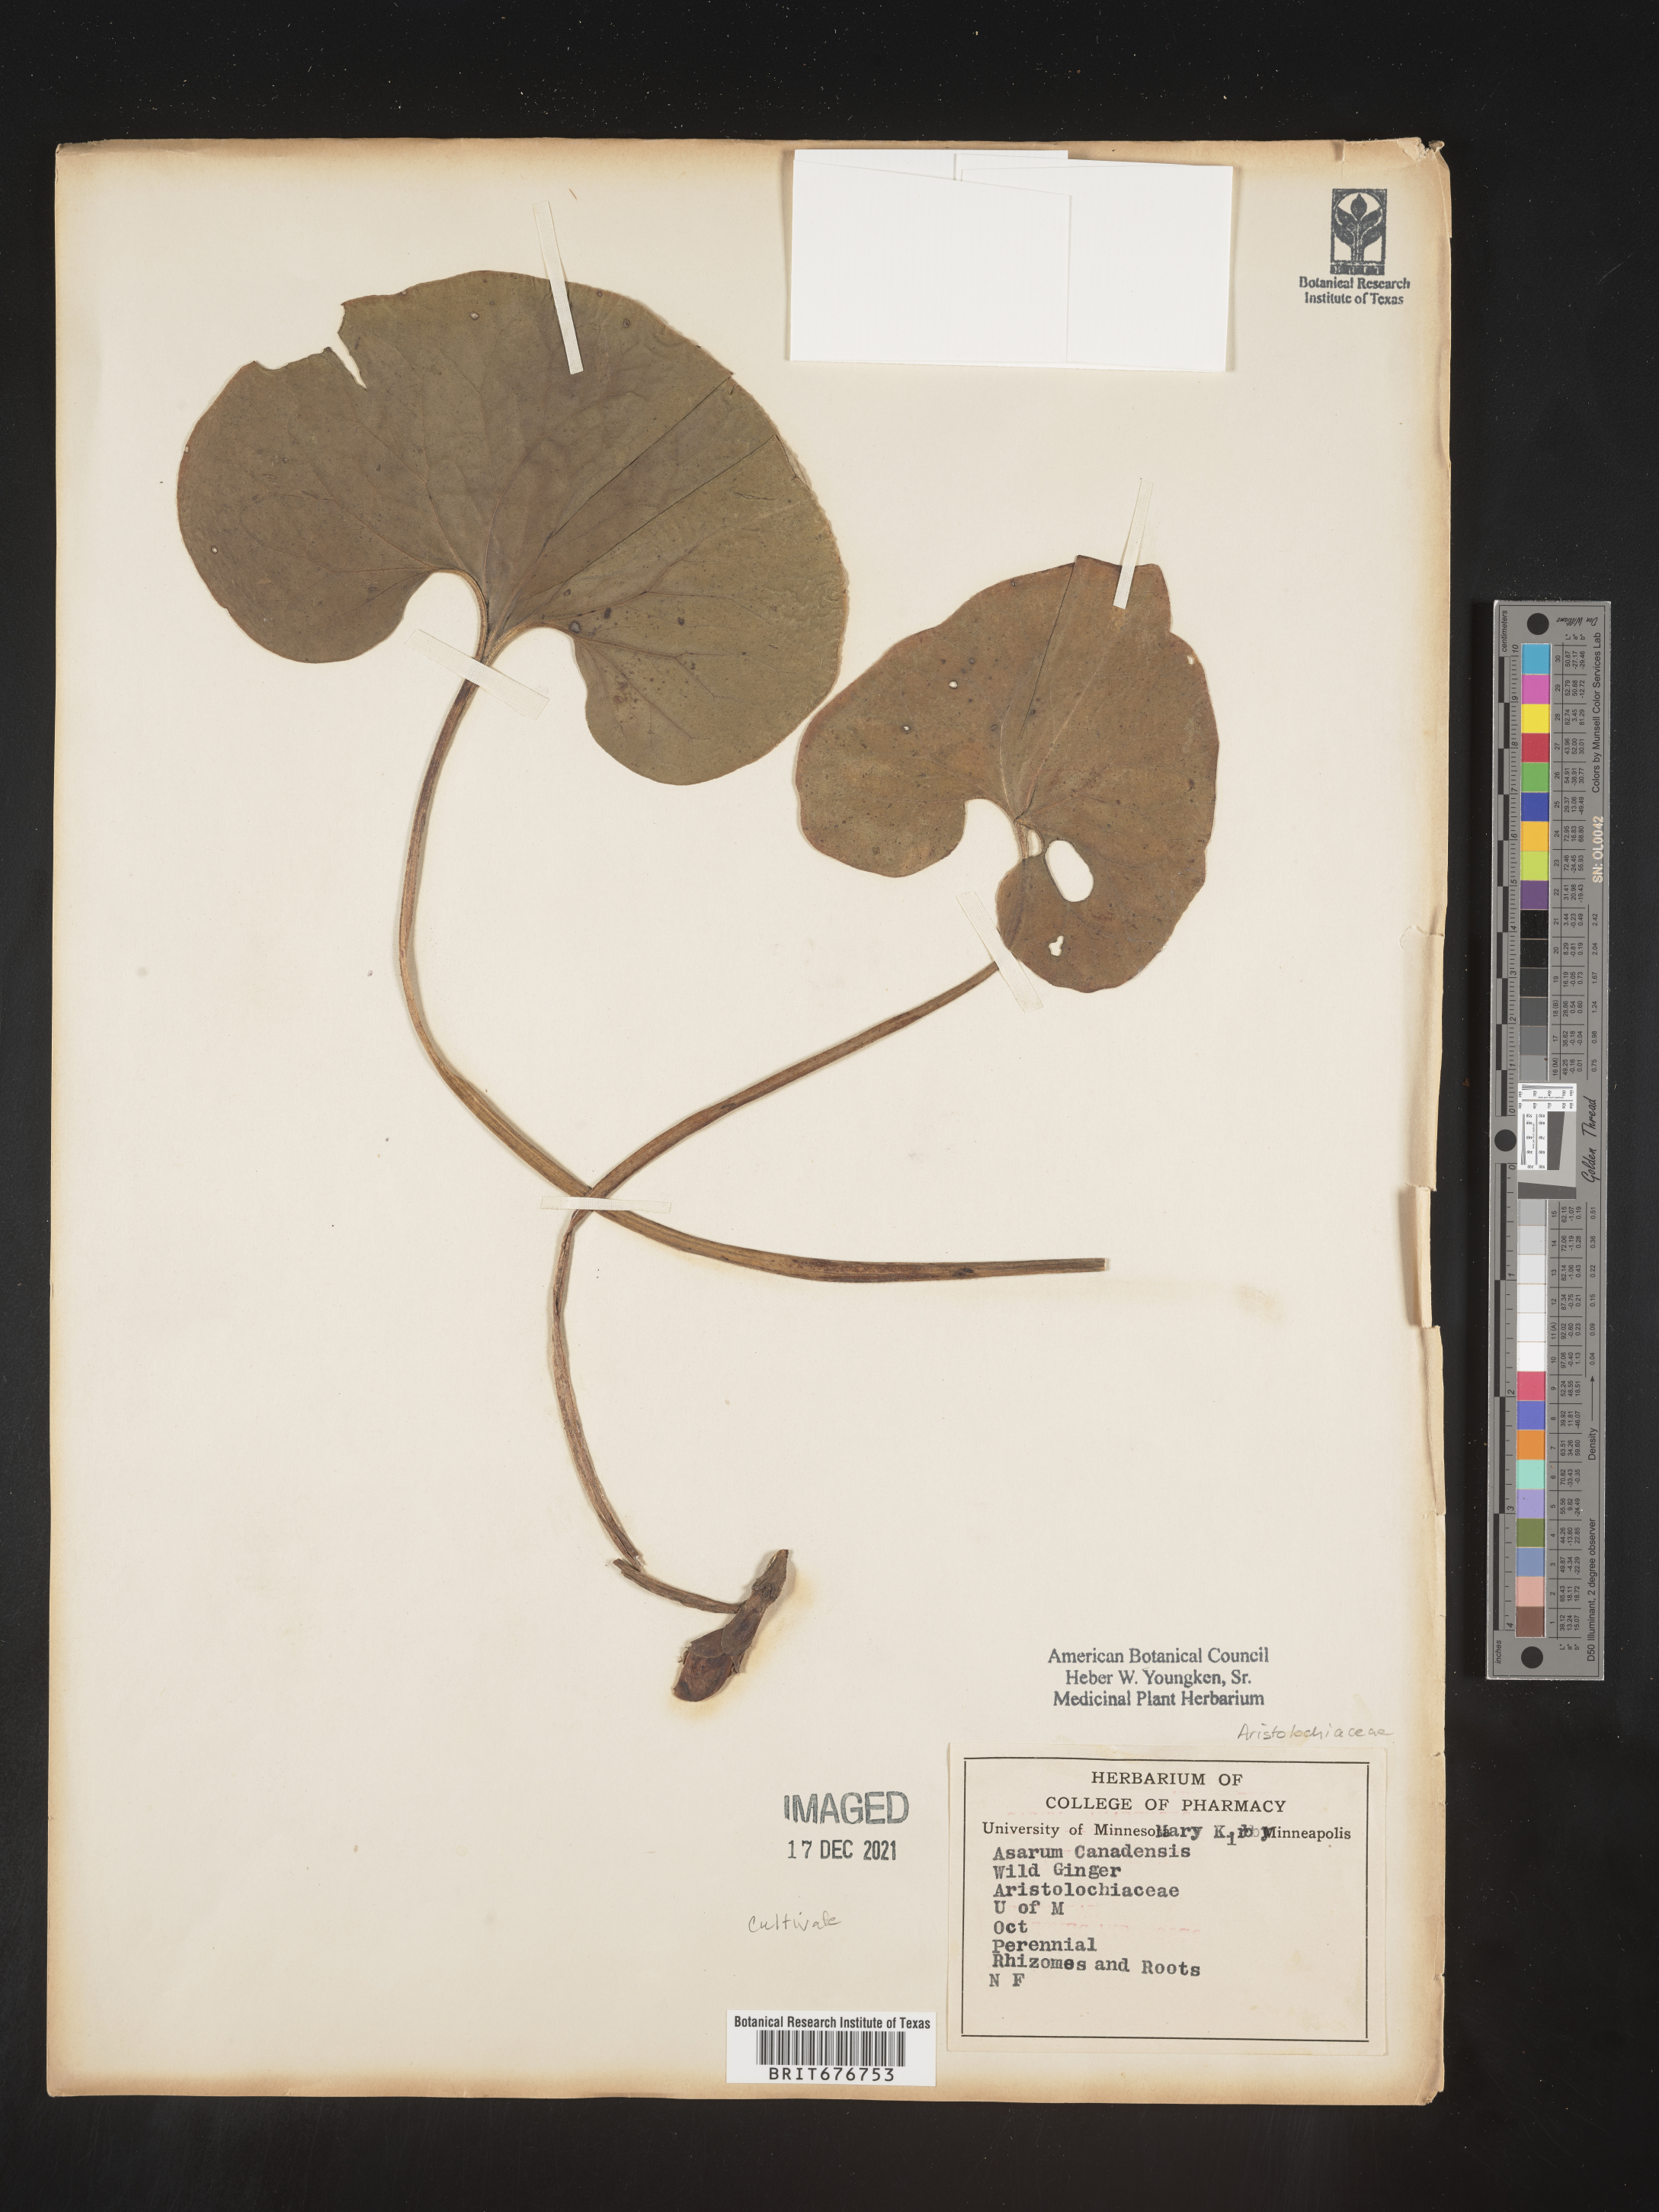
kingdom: Plantae
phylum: Tracheophyta
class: Magnoliopsida
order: Piperales
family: Aristolochiaceae
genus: Aristolochia
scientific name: Aristolochia
